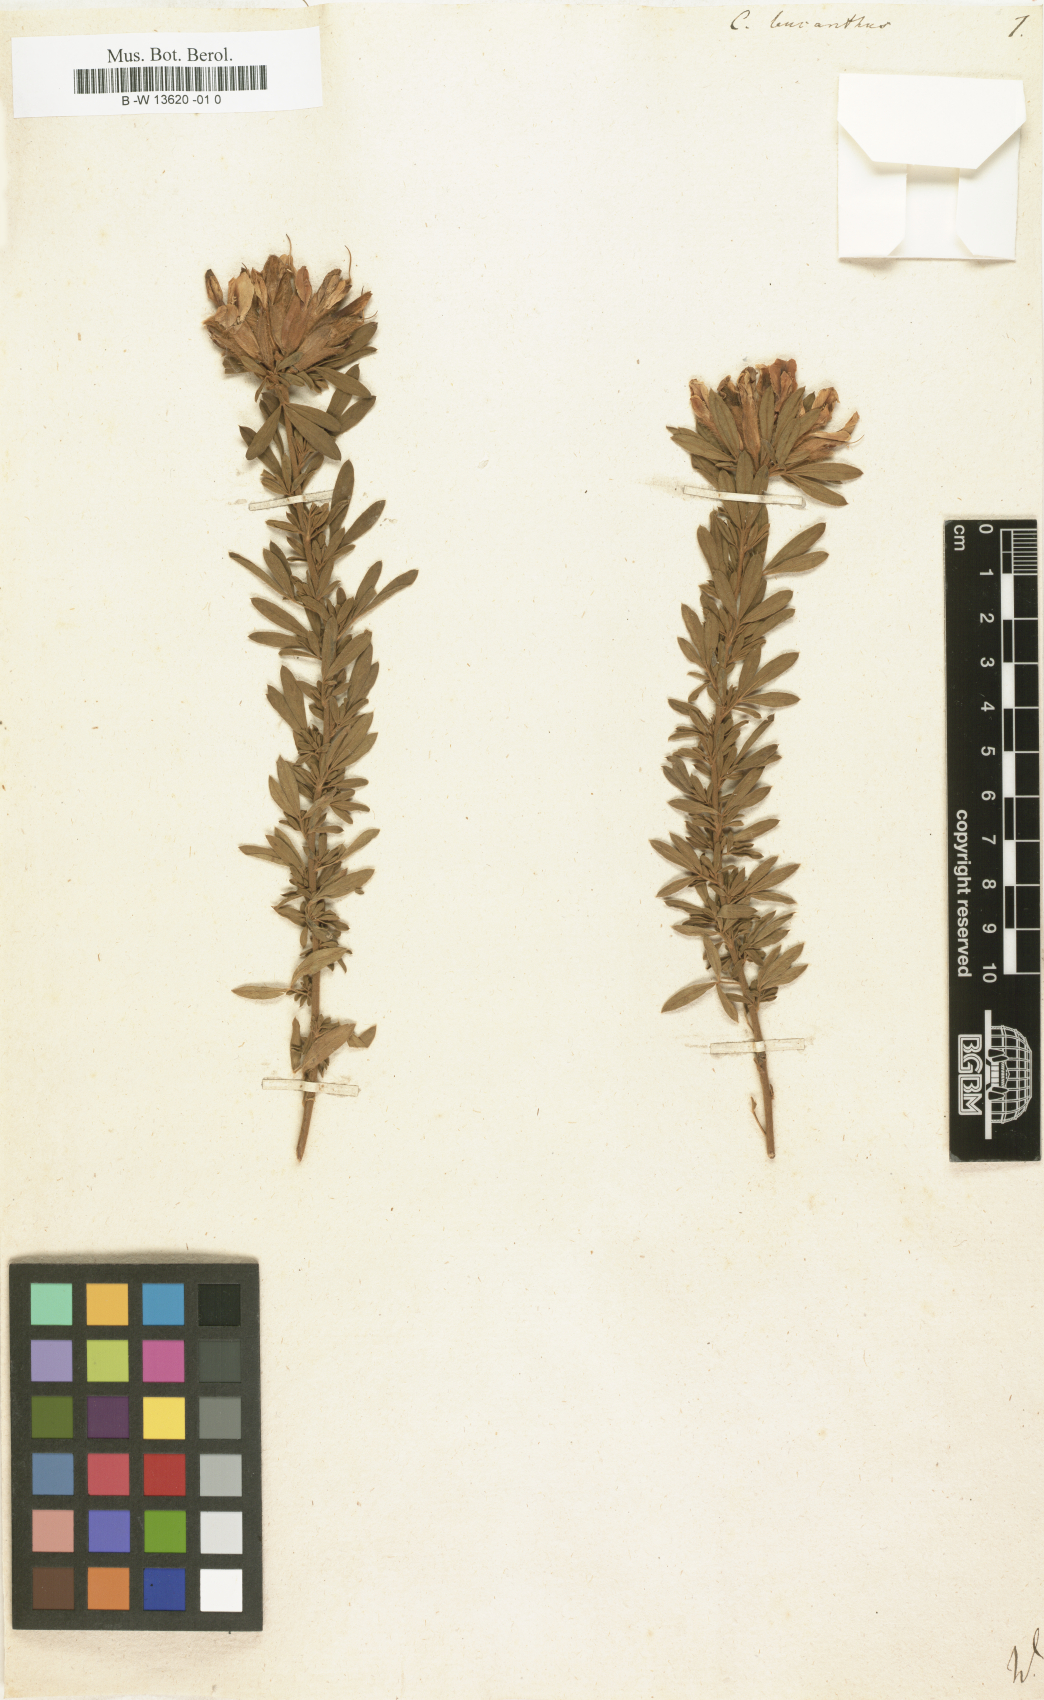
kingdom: Plantae
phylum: Tracheophyta
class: Magnoliopsida
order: Fabales
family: Fabaceae
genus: Chamaecytisus
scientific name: Chamaecytisus albus
